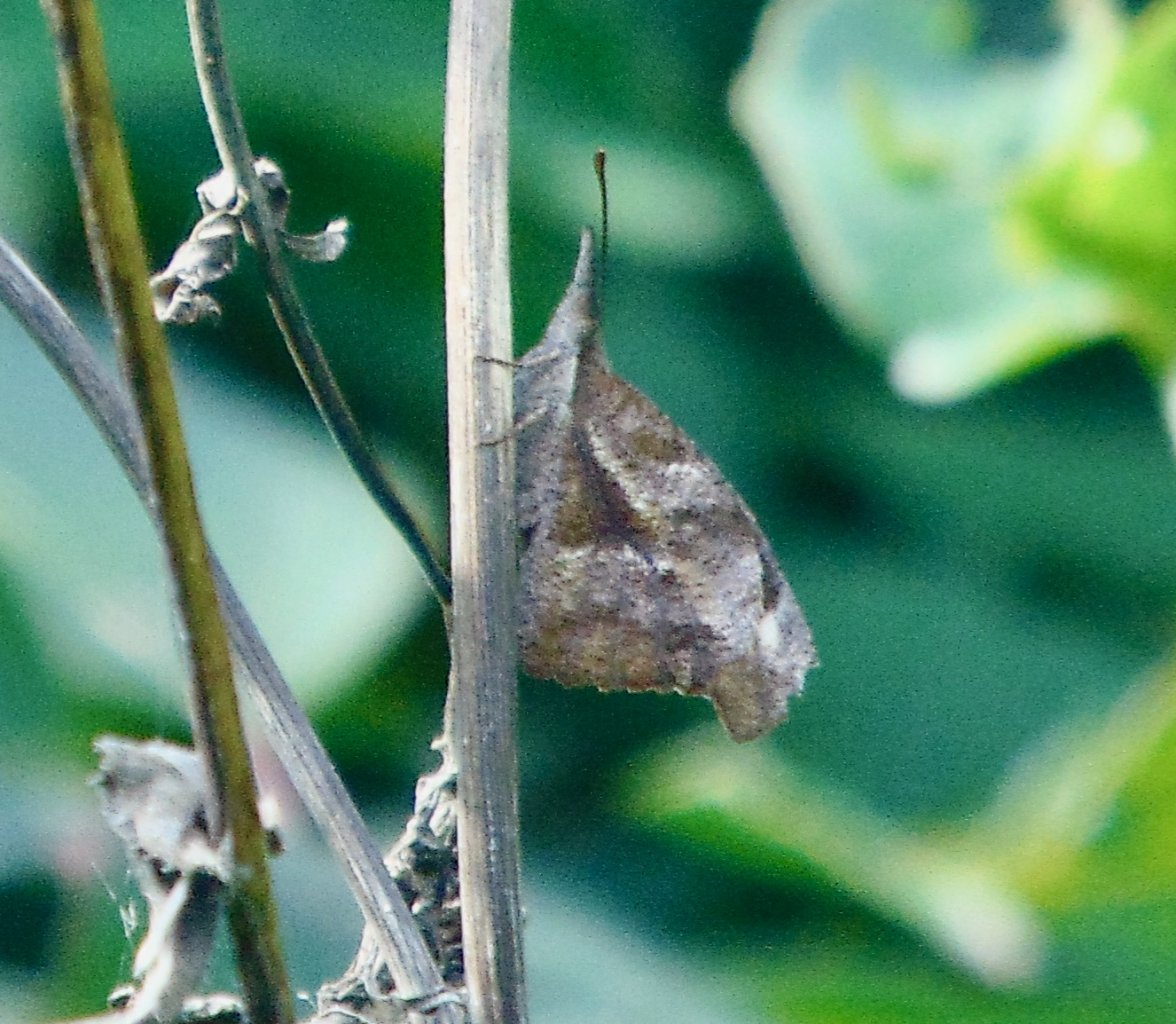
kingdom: Animalia
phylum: Arthropoda
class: Insecta
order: Lepidoptera
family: Nymphalidae
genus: Libytheana
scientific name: Libytheana carinenta
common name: American Snout
